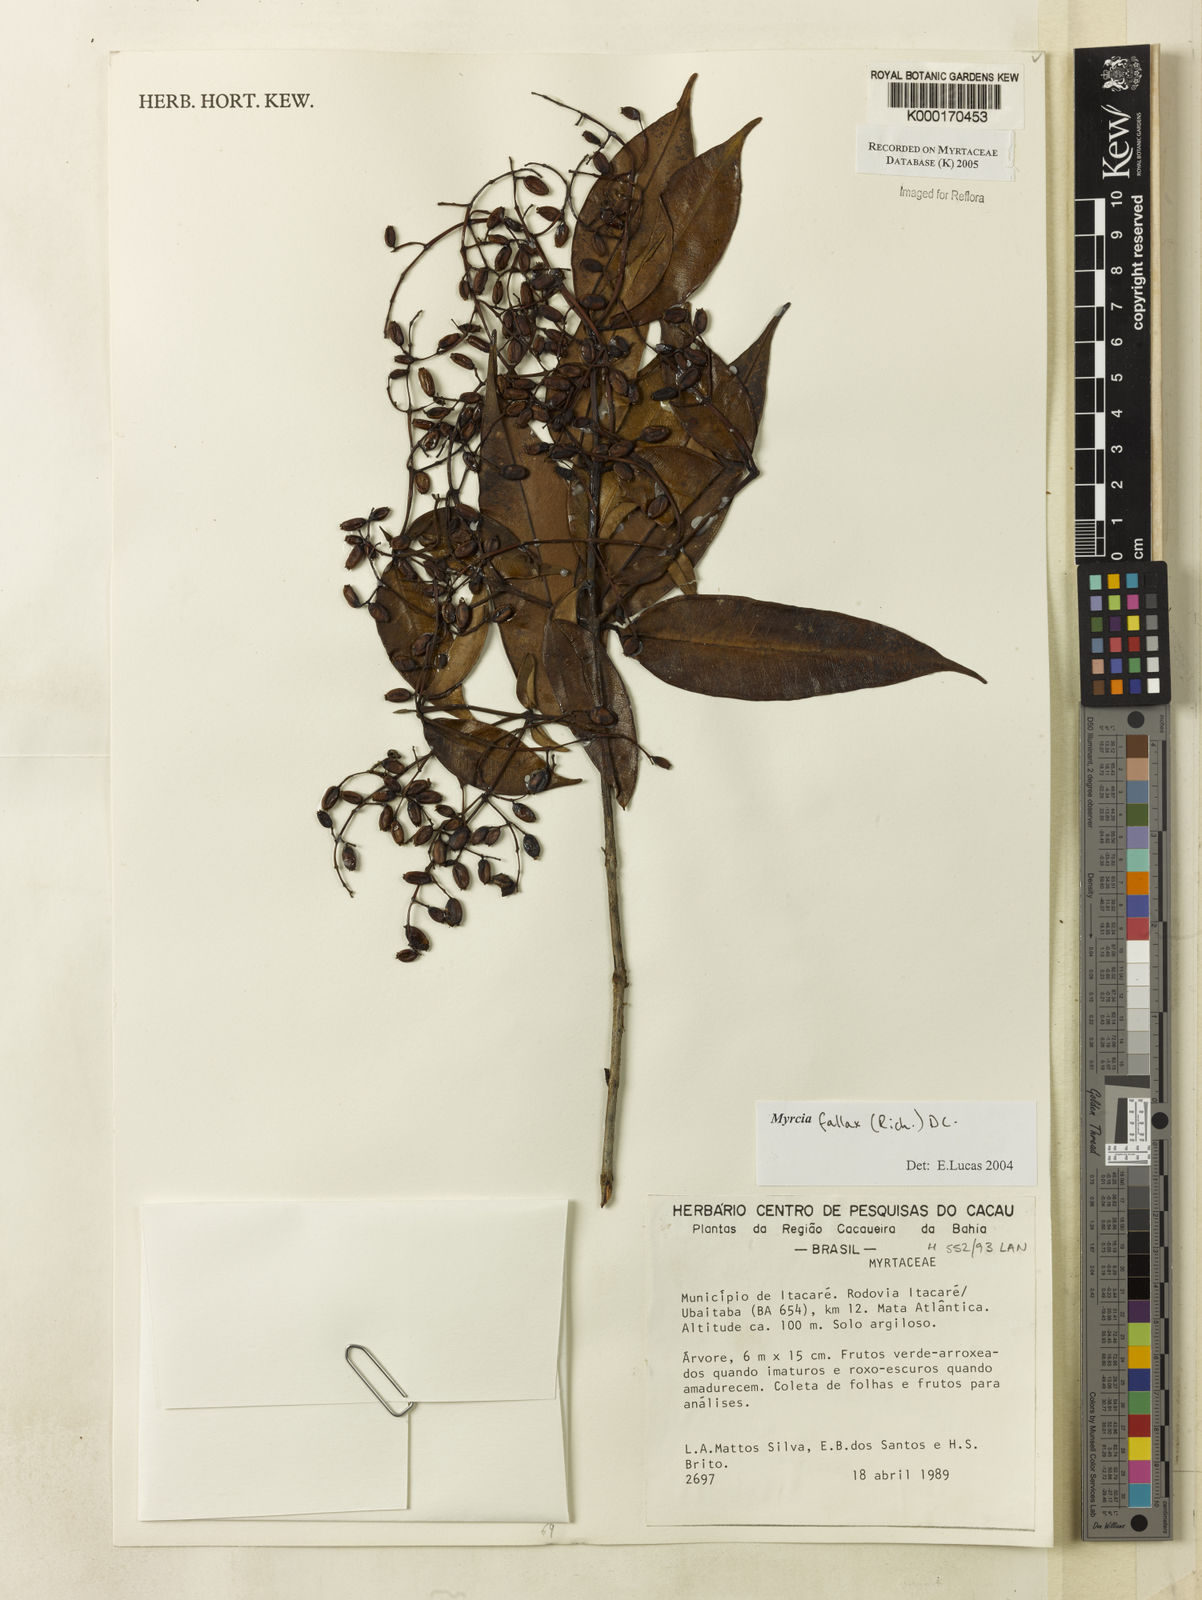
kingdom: Plantae
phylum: Tracheophyta
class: Magnoliopsida
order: Myrtales
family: Myrtaceae
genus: Myrcia
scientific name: Myrcia splendens
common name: Surinam cherry
